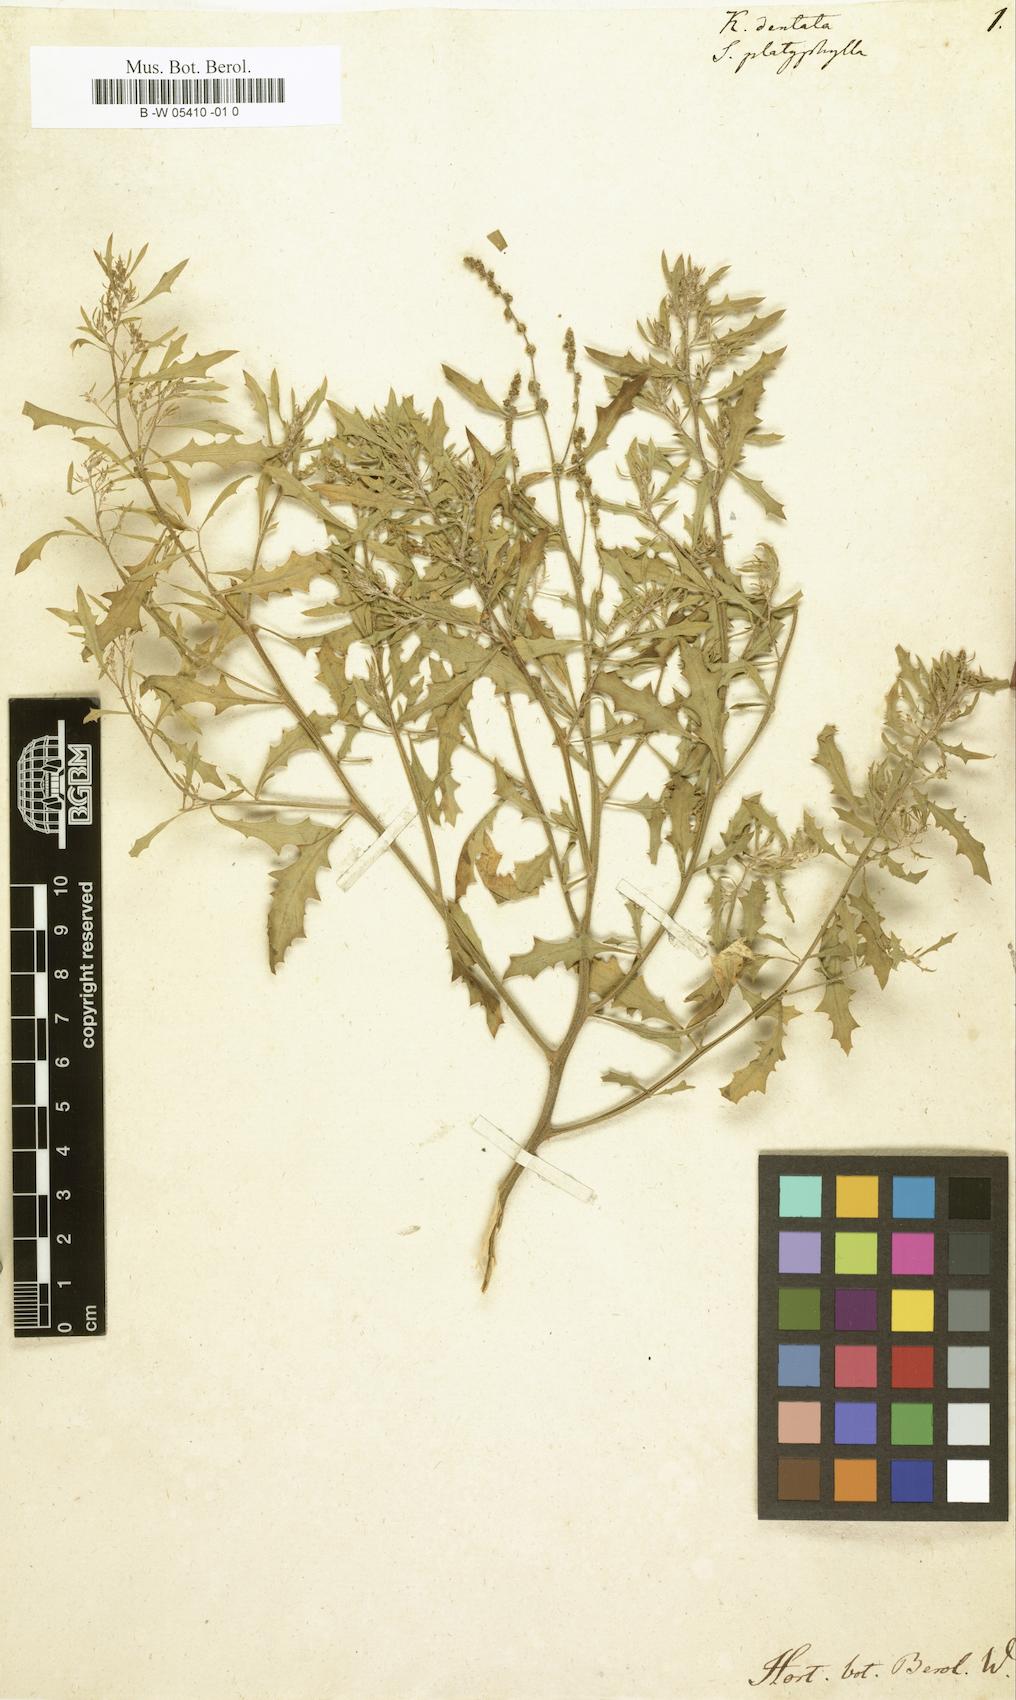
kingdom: Plantae
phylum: Tracheophyta
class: Magnoliopsida
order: Caryophyllales
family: Amaranthaceae
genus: Dysphania
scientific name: Dysphania atriplicifolia
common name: Plains tumbleweed
